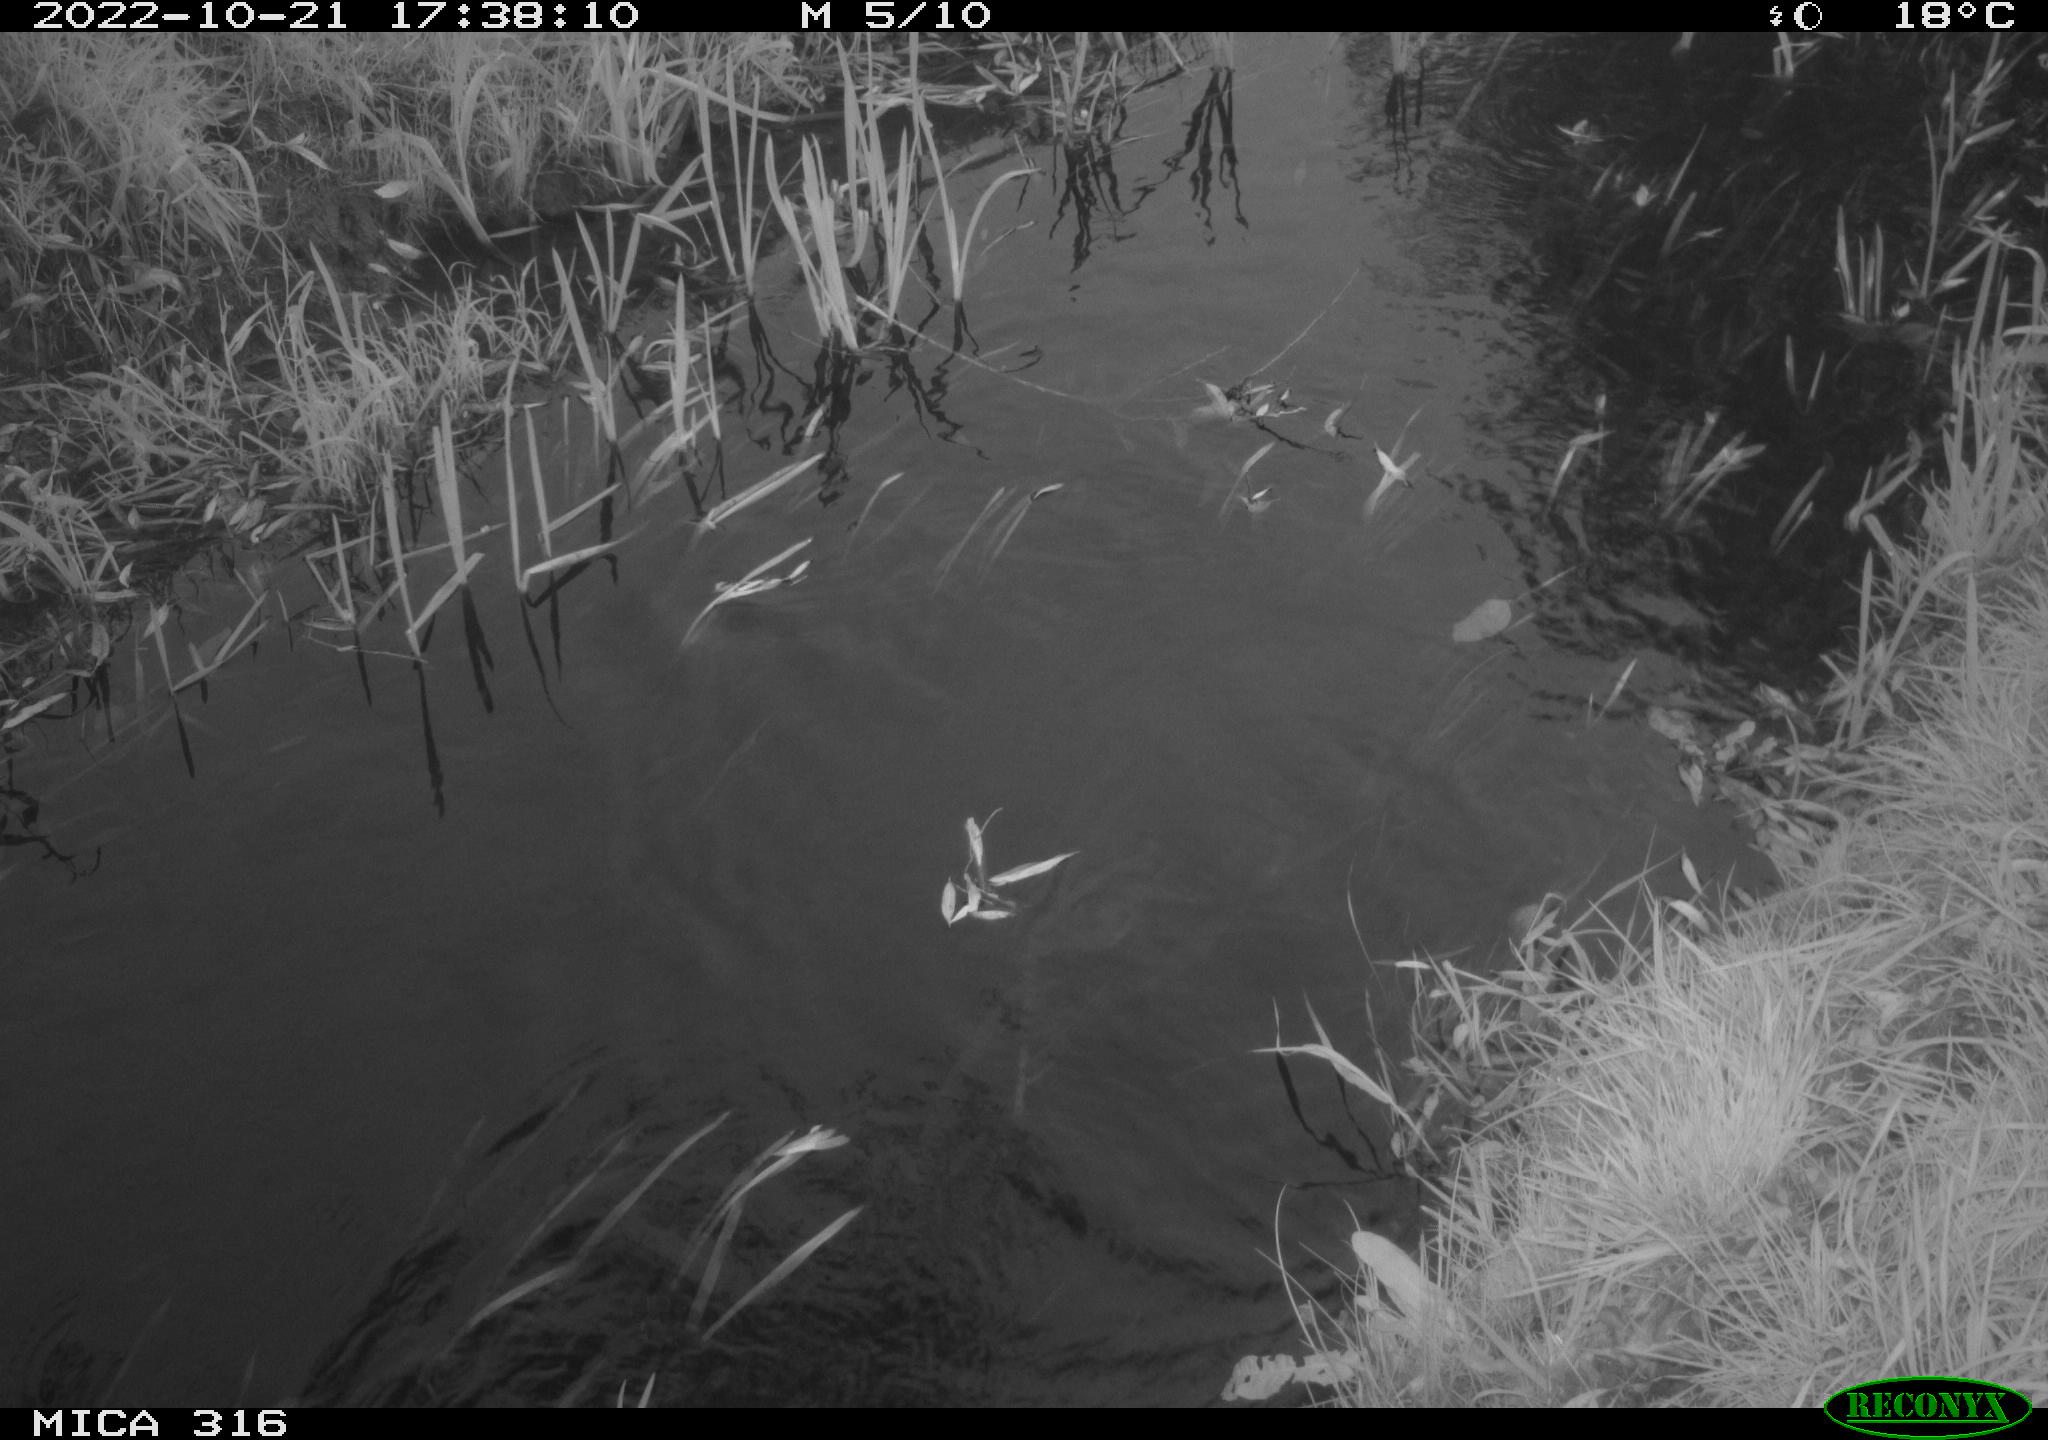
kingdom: Animalia
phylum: Chordata
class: Aves
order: Gruiformes
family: Rallidae
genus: Gallinula
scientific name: Gallinula chloropus
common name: Common moorhen
